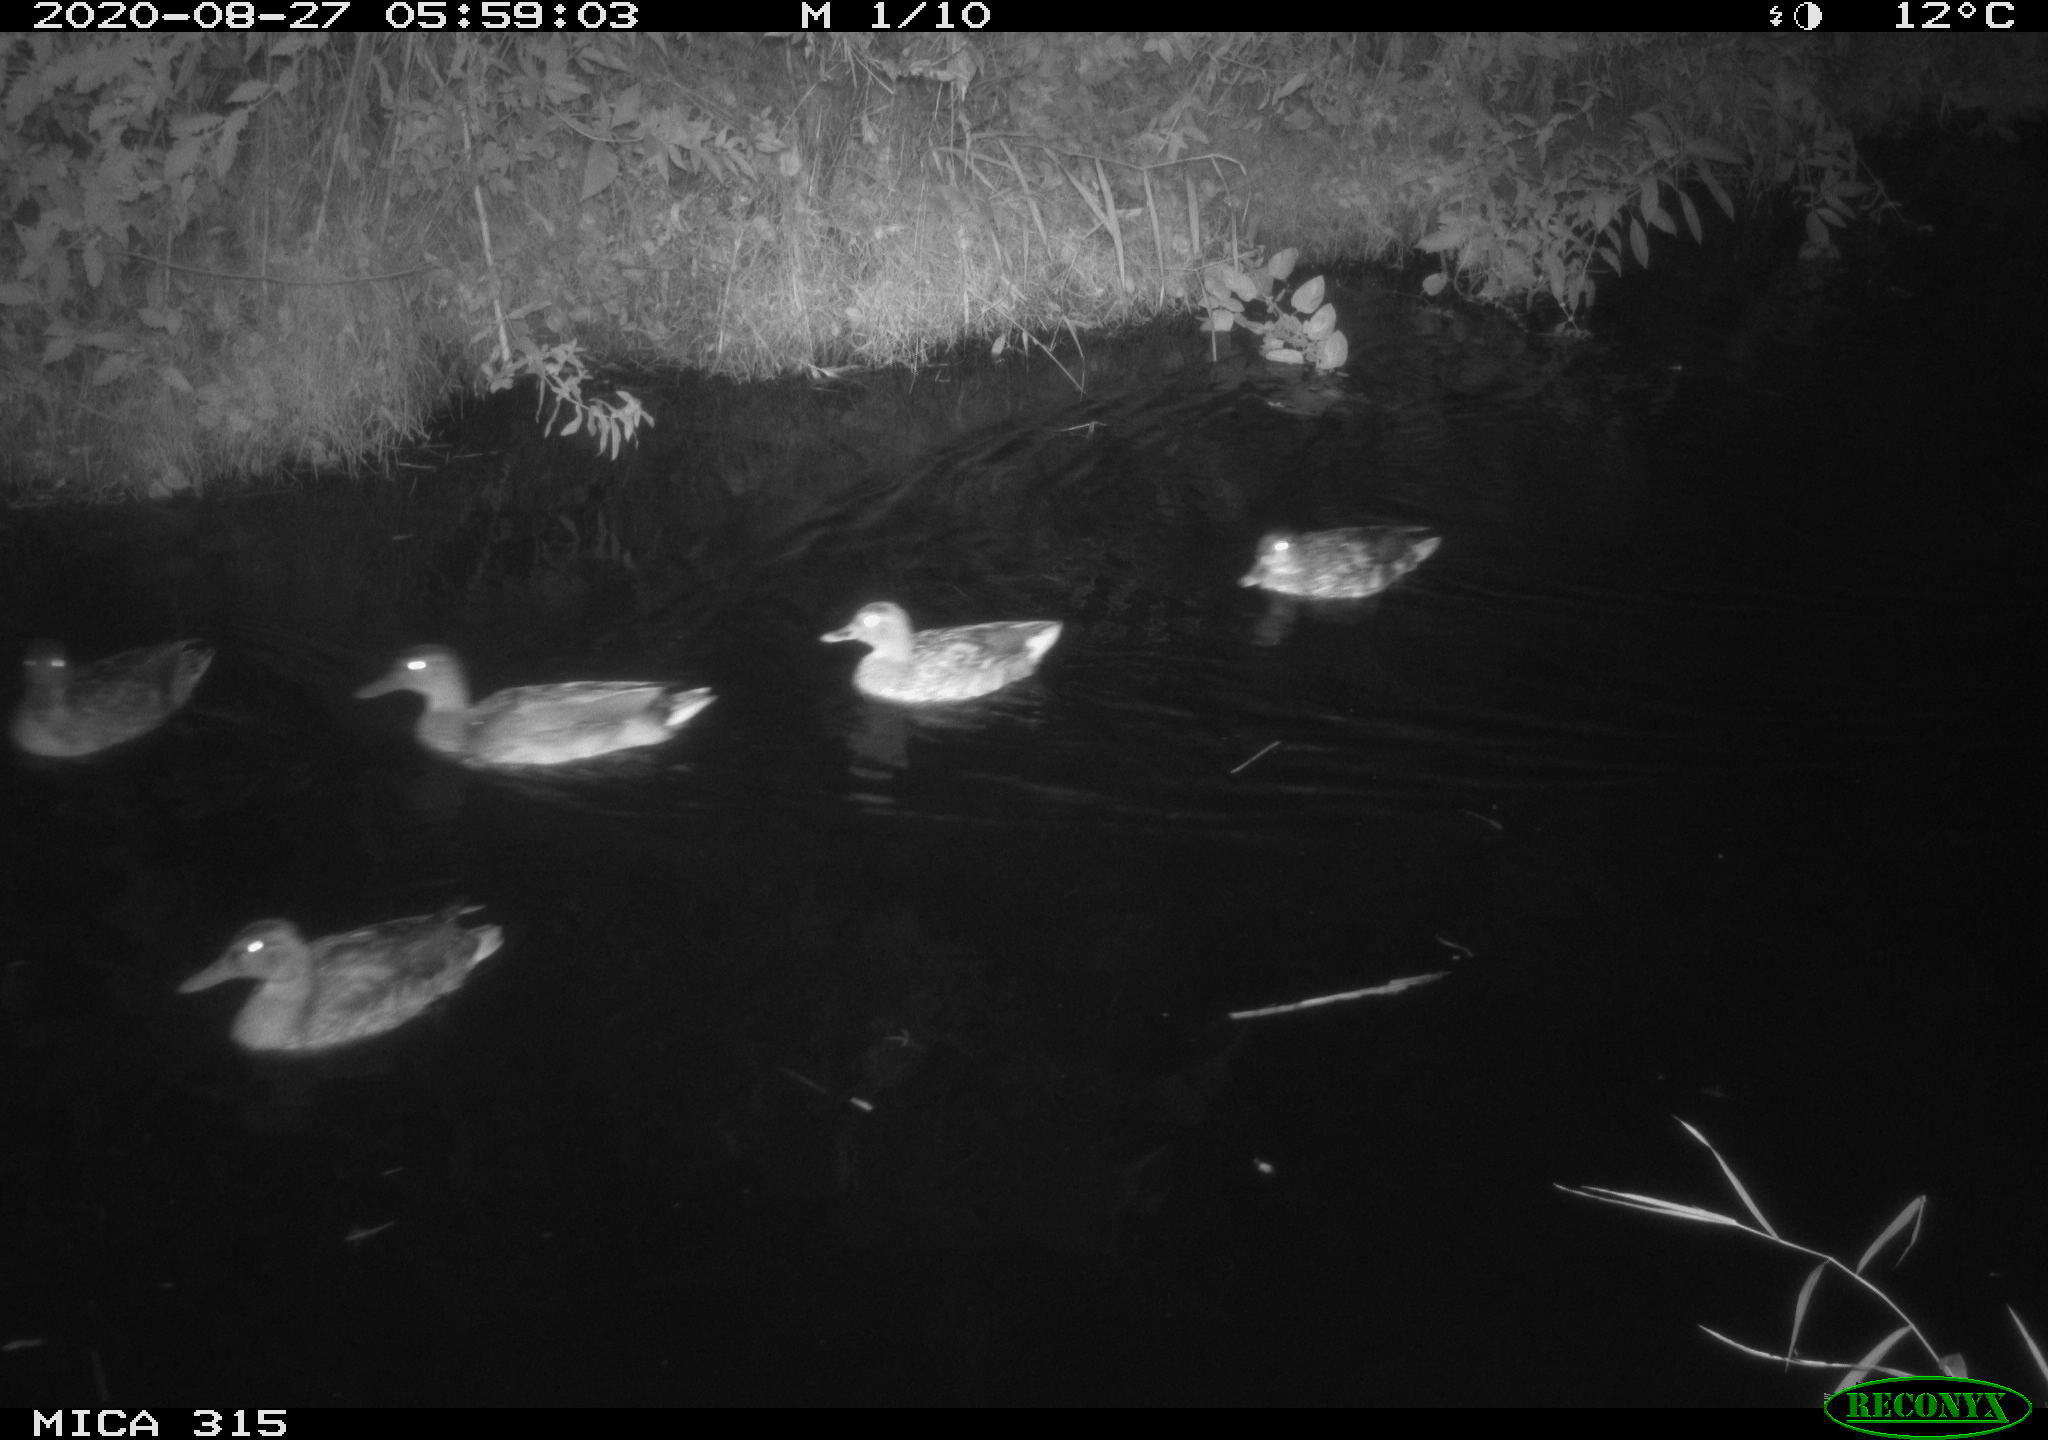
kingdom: Animalia
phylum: Chordata
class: Aves
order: Anseriformes
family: Anatidae
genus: Anas
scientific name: Anas platyrhynchos
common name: Mallard
